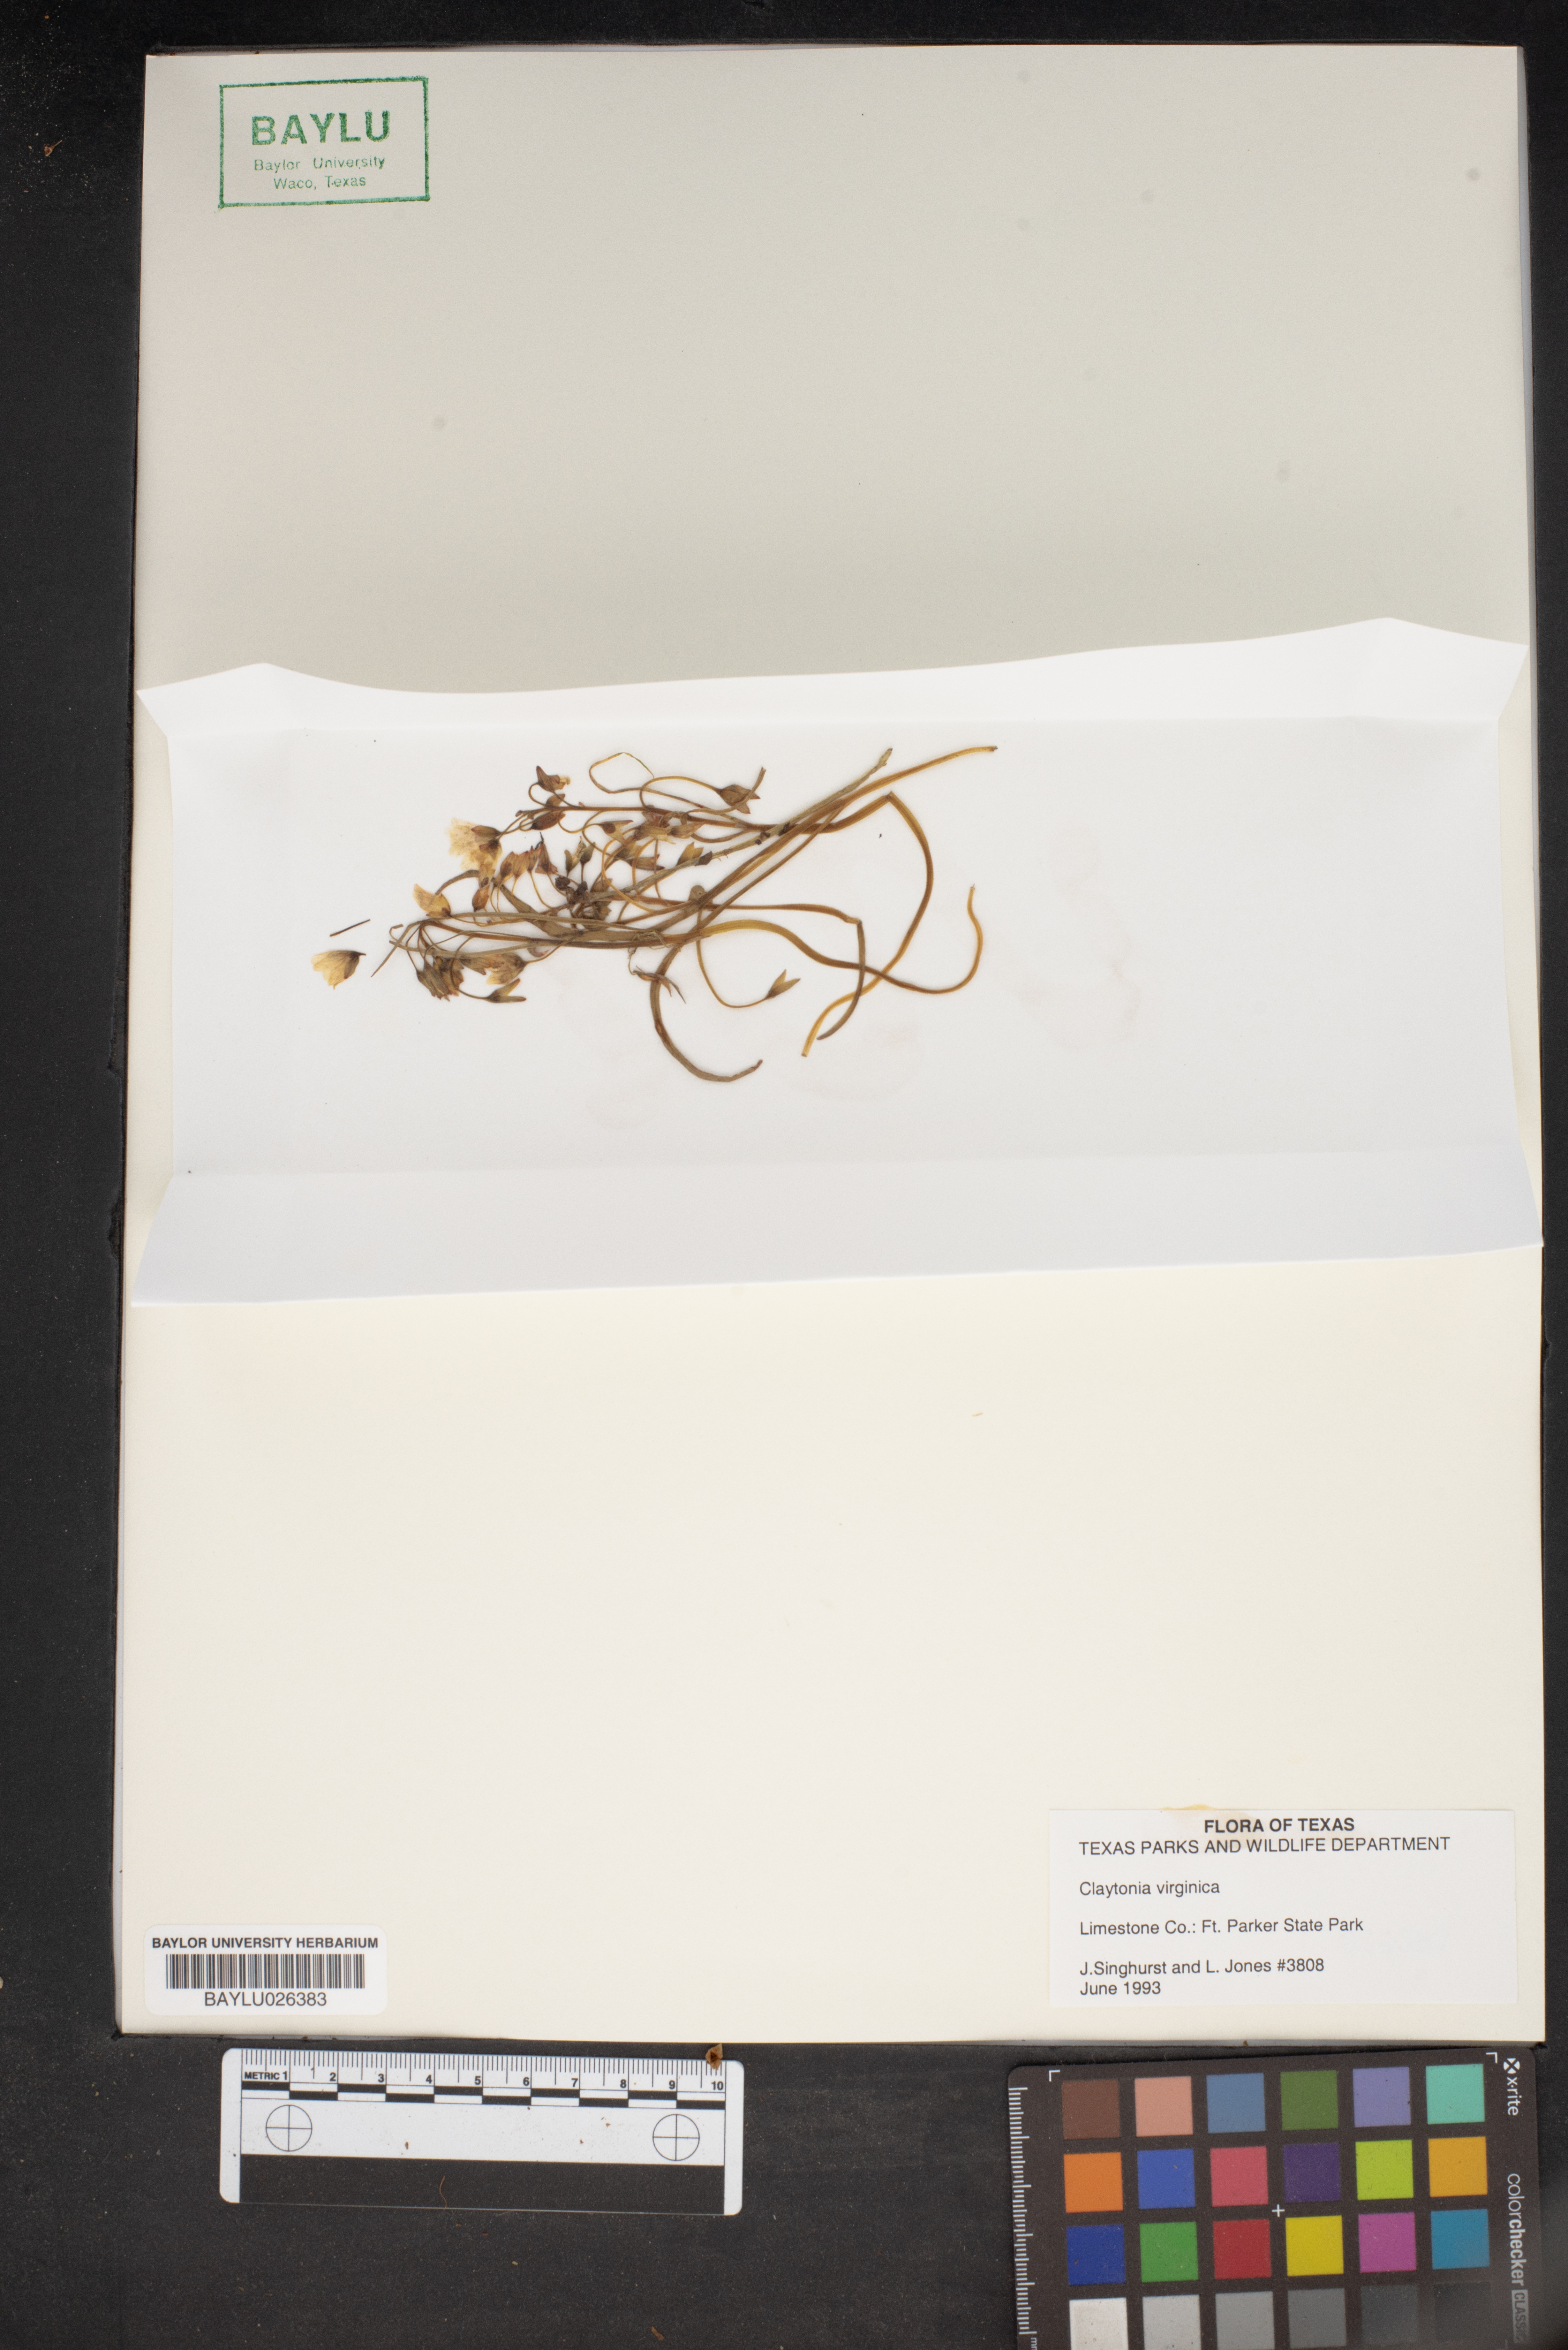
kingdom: Plantae
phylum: Tracheophyta
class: Magnoliopsida
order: Caryophyllales
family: Montiaceae
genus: Claytonia
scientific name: Claytonia virginica
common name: Virginia springbeauty
